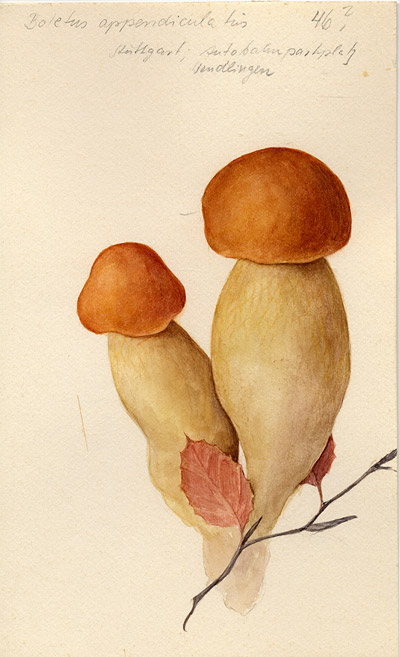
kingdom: Fungi
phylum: Basidiomycota
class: Agaricomycetes
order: Boletales
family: Boletaceae
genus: Butyriboletus
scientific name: Butyriboletus appendiculatus
